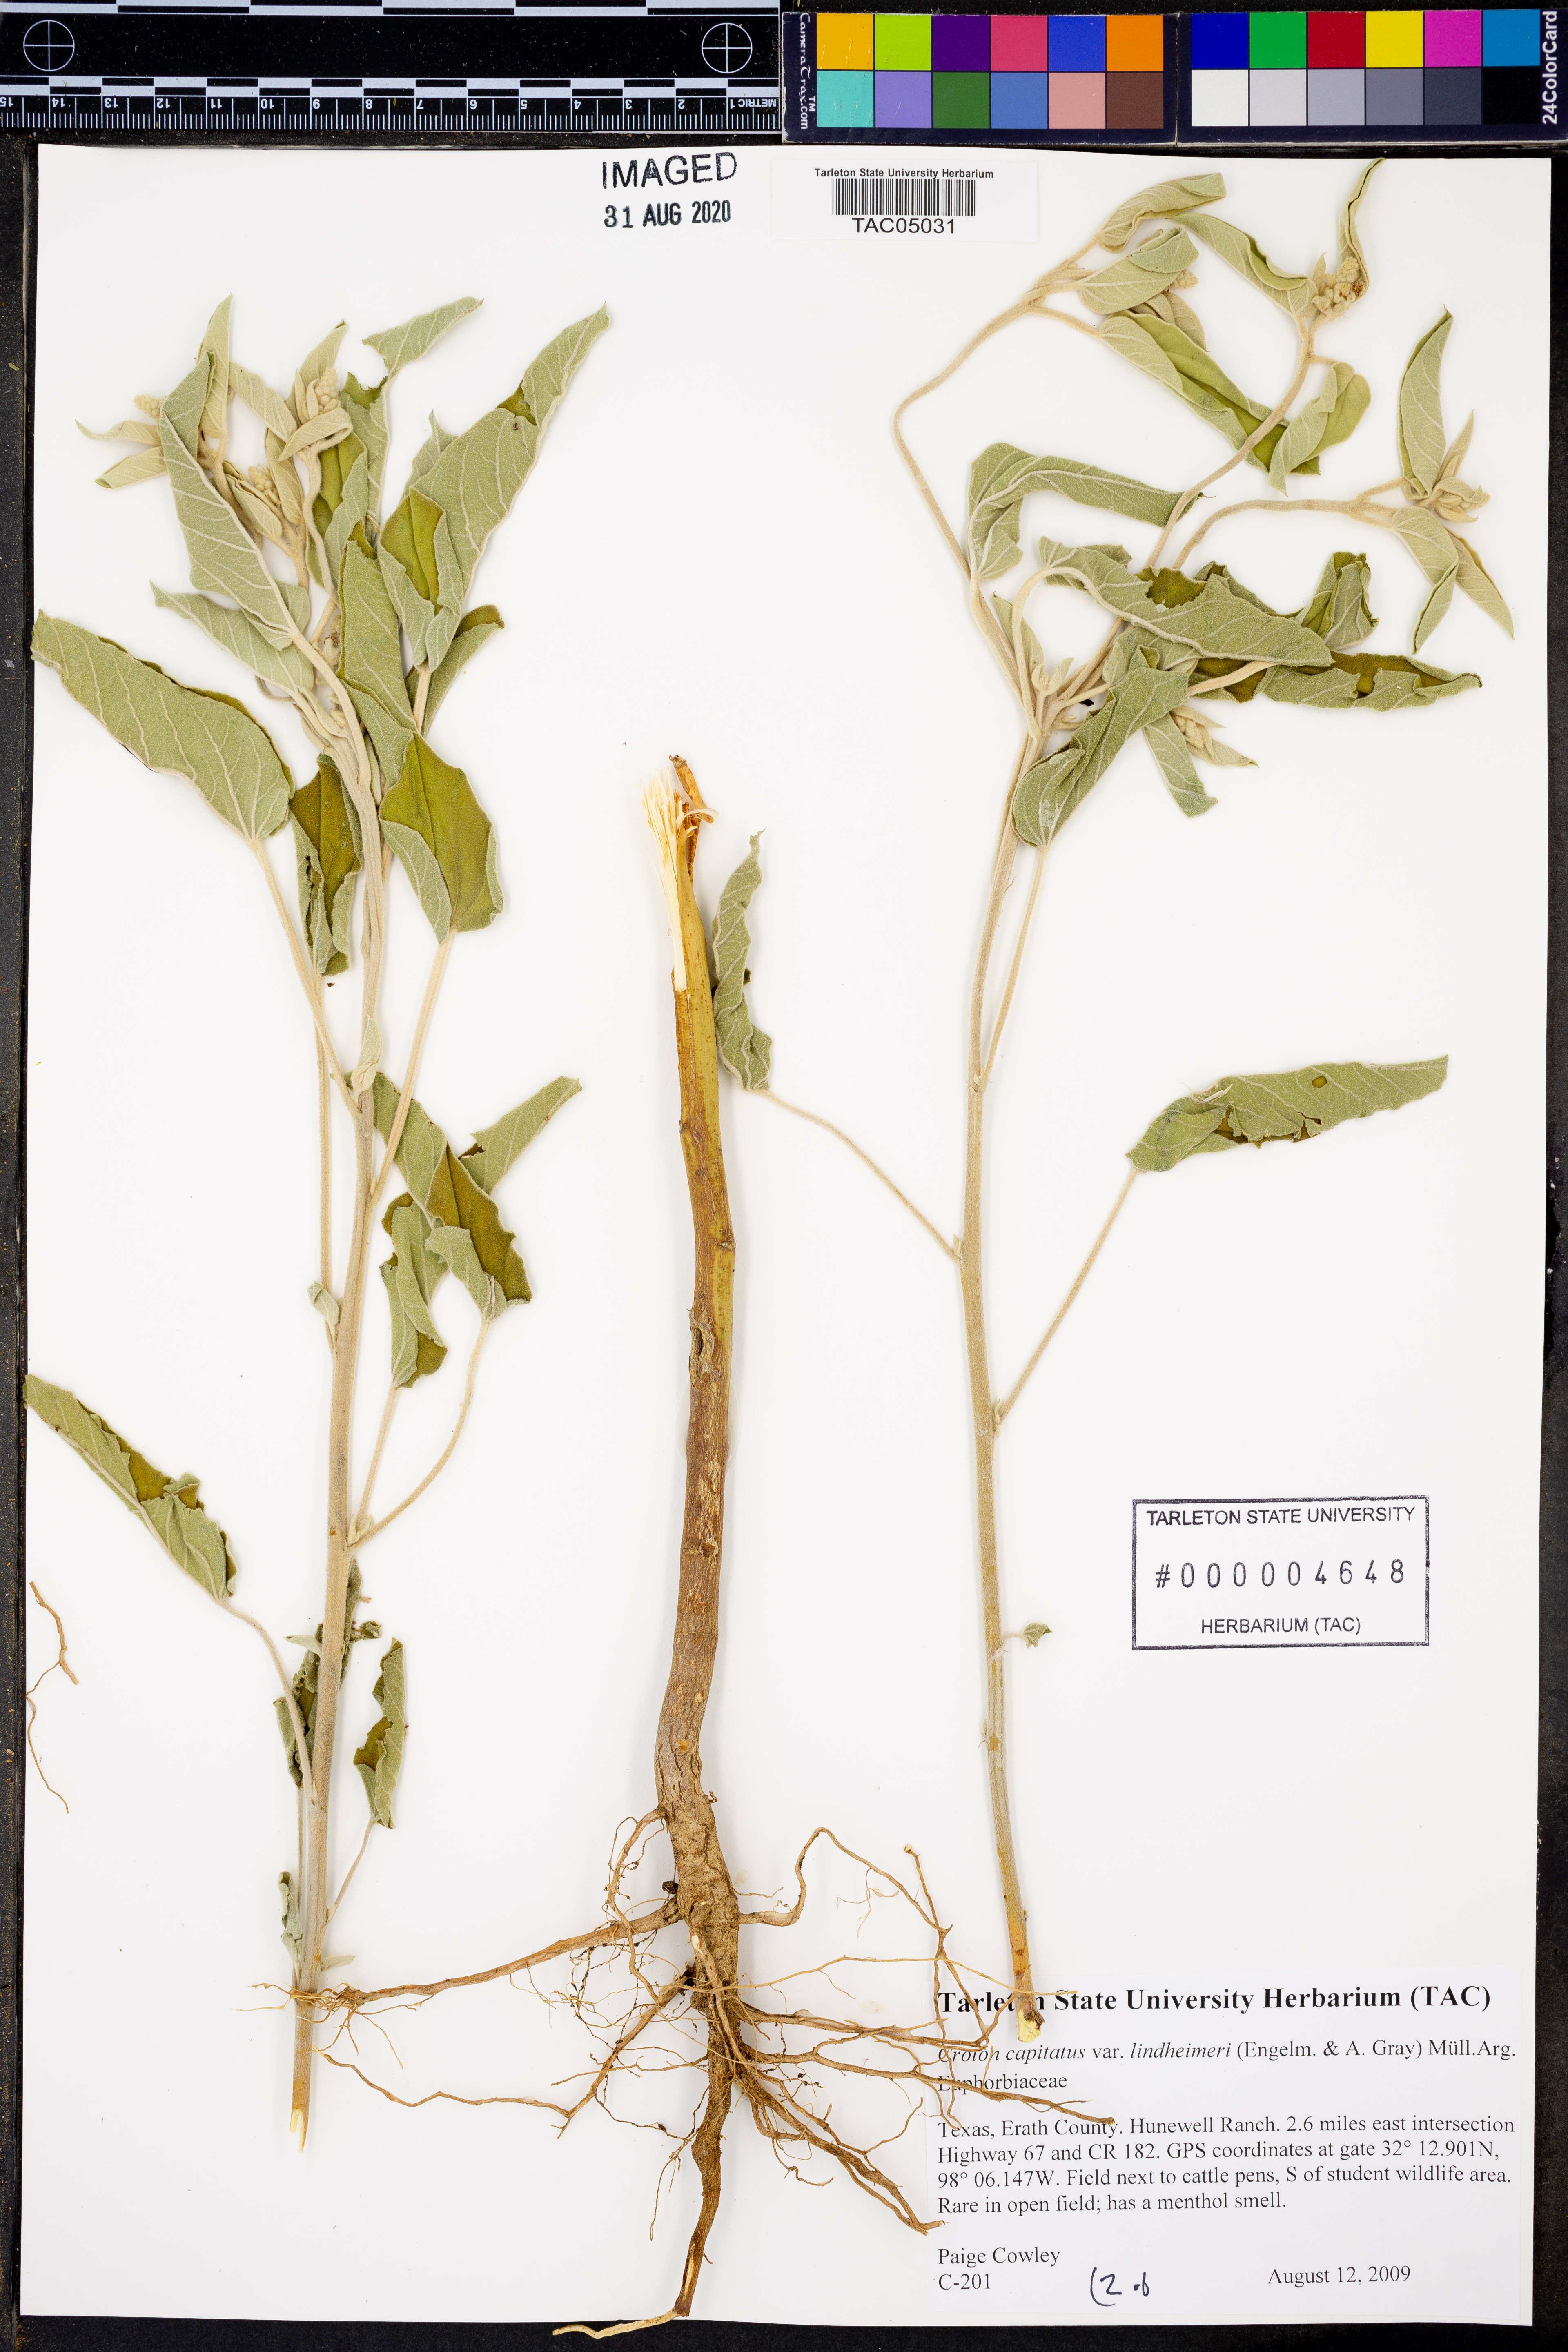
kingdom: Plantae
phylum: Tracheophyta
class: Magnoliopsida
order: Malpighiales
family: Euphorbiaceae
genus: Croton
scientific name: Croton lindheimeri
